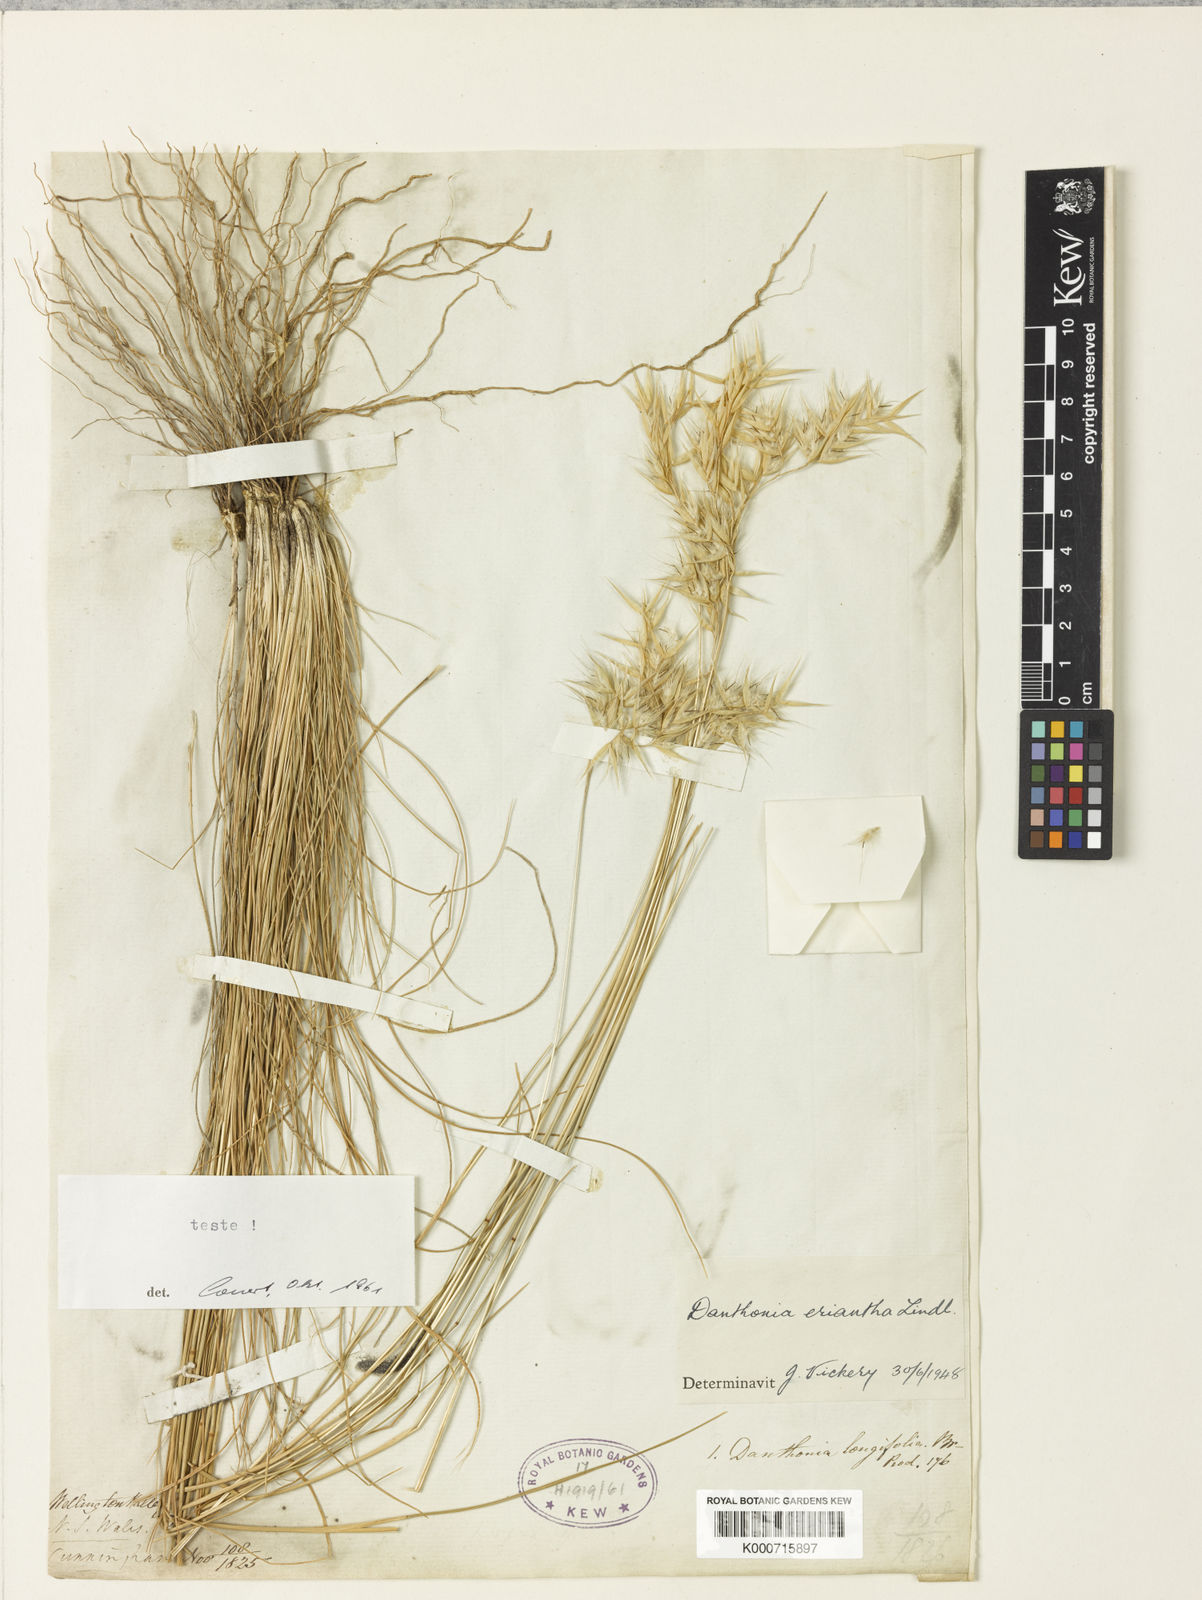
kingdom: Plantae
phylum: Tracheophyta
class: Liliopsida
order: Poales
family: Poaceae
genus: Rytidosperma
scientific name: Rytidosperma erianthum
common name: Hill wallaby grass
